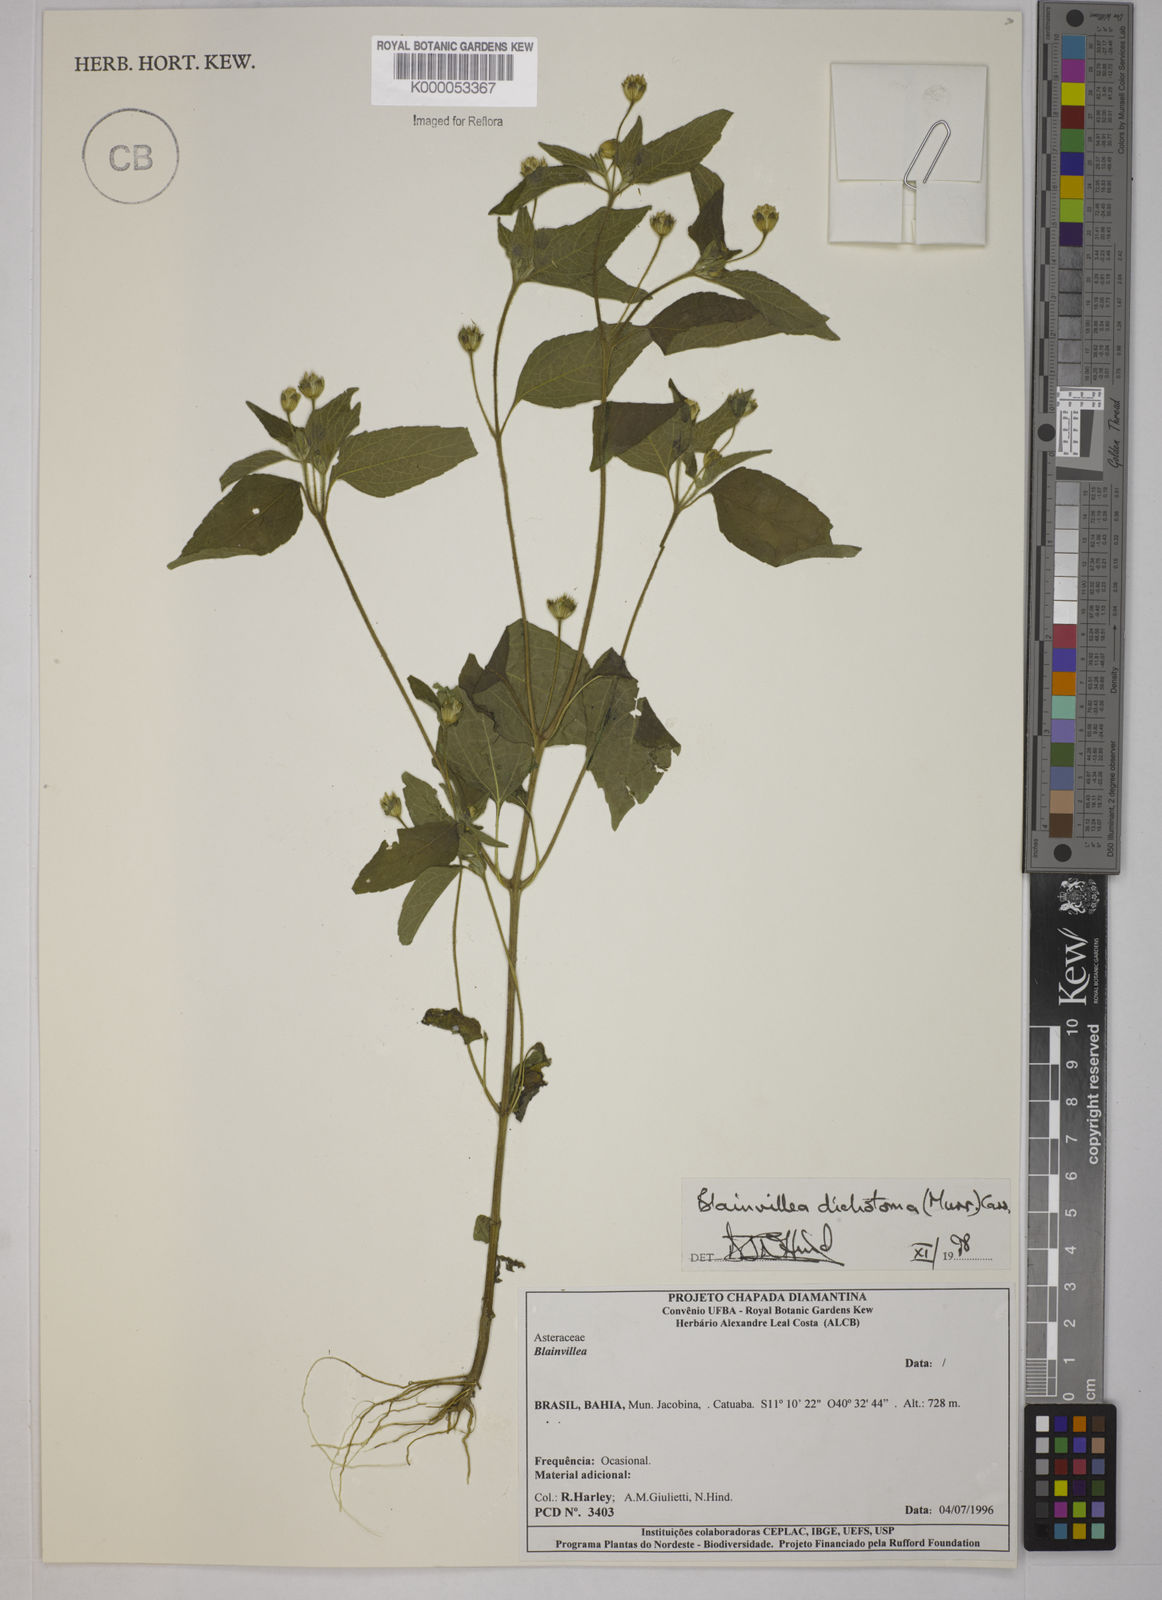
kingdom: Plantae
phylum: Tracheophyta
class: Magnoliopsida
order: Asterales
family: Asteraceae
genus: Blainvillea
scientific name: Blainvillea acmella
